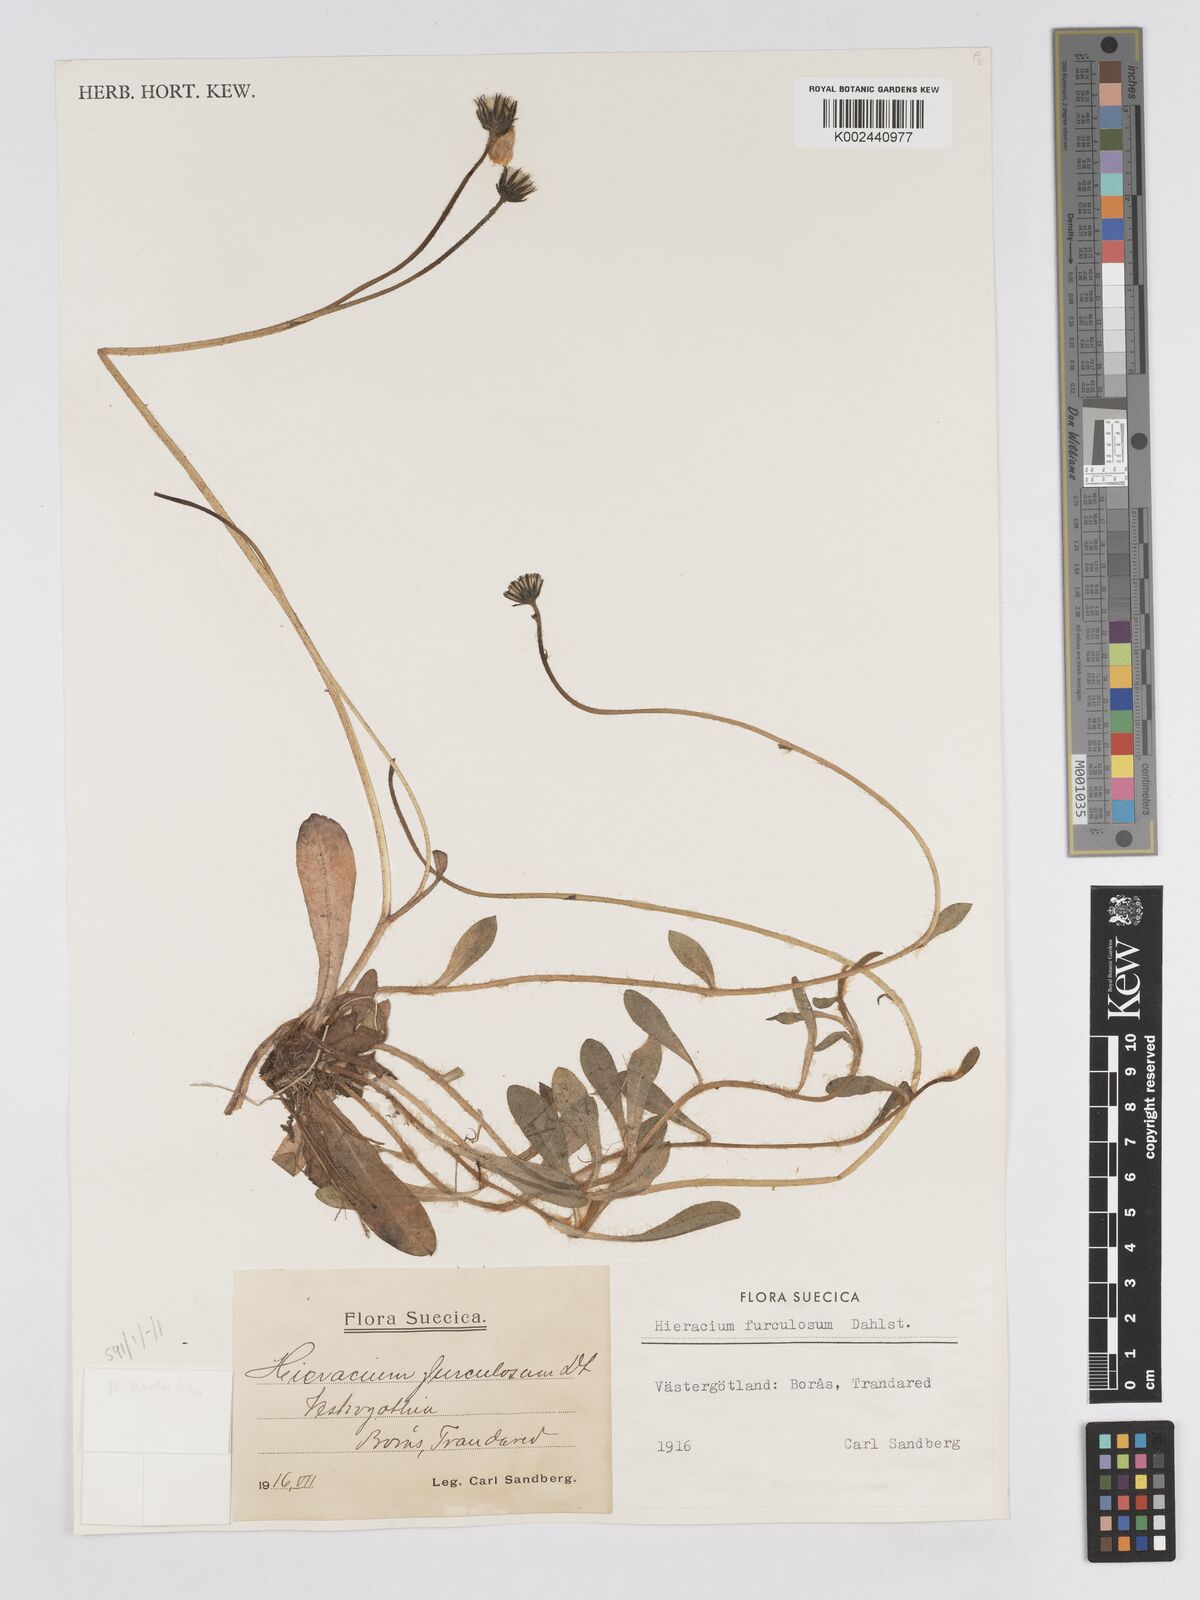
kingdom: Plantae
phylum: Tracheophyta
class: Magnoliopsida
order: Asterales
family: Asteraceae
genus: Pilosella
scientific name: Pilosella schultesii
